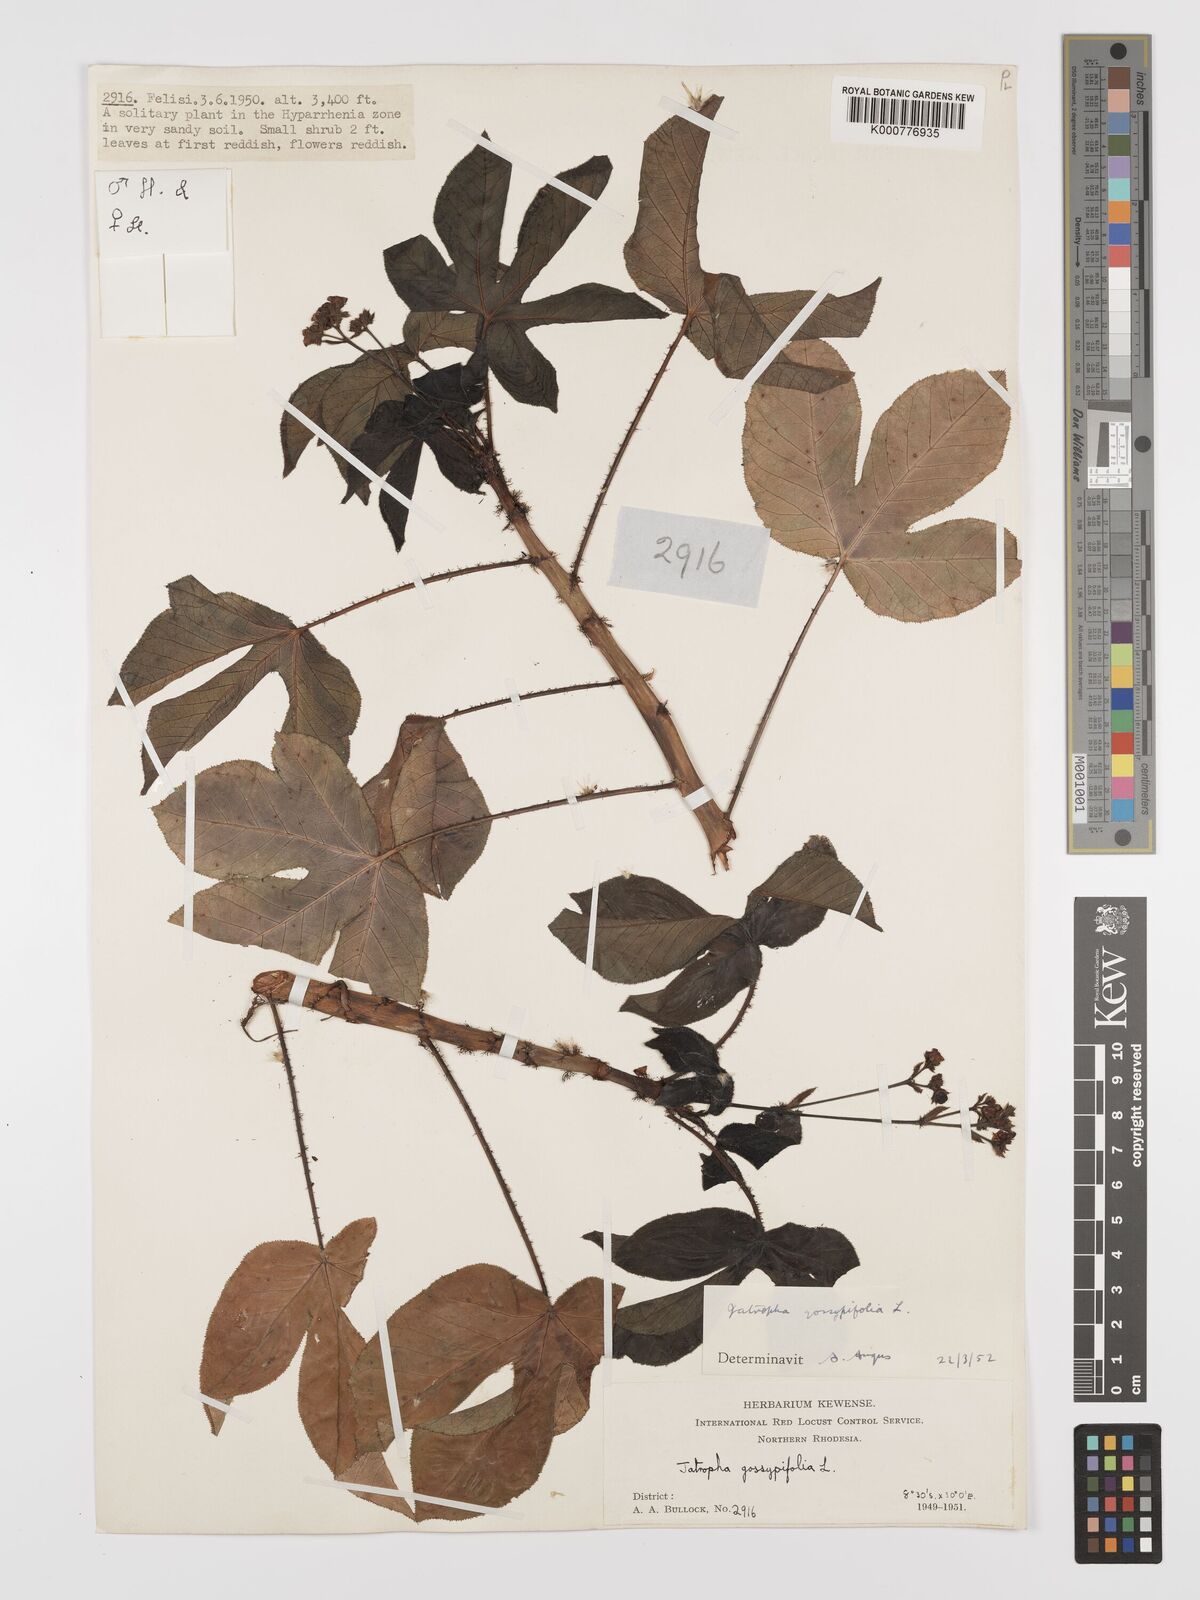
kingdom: Plantae
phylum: Tracheophyta
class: Magnoliopsida
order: Malpighiales
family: Euphorbiaceae
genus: Jatropha
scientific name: Jatropha gossypiifolia
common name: Bellyache bush
